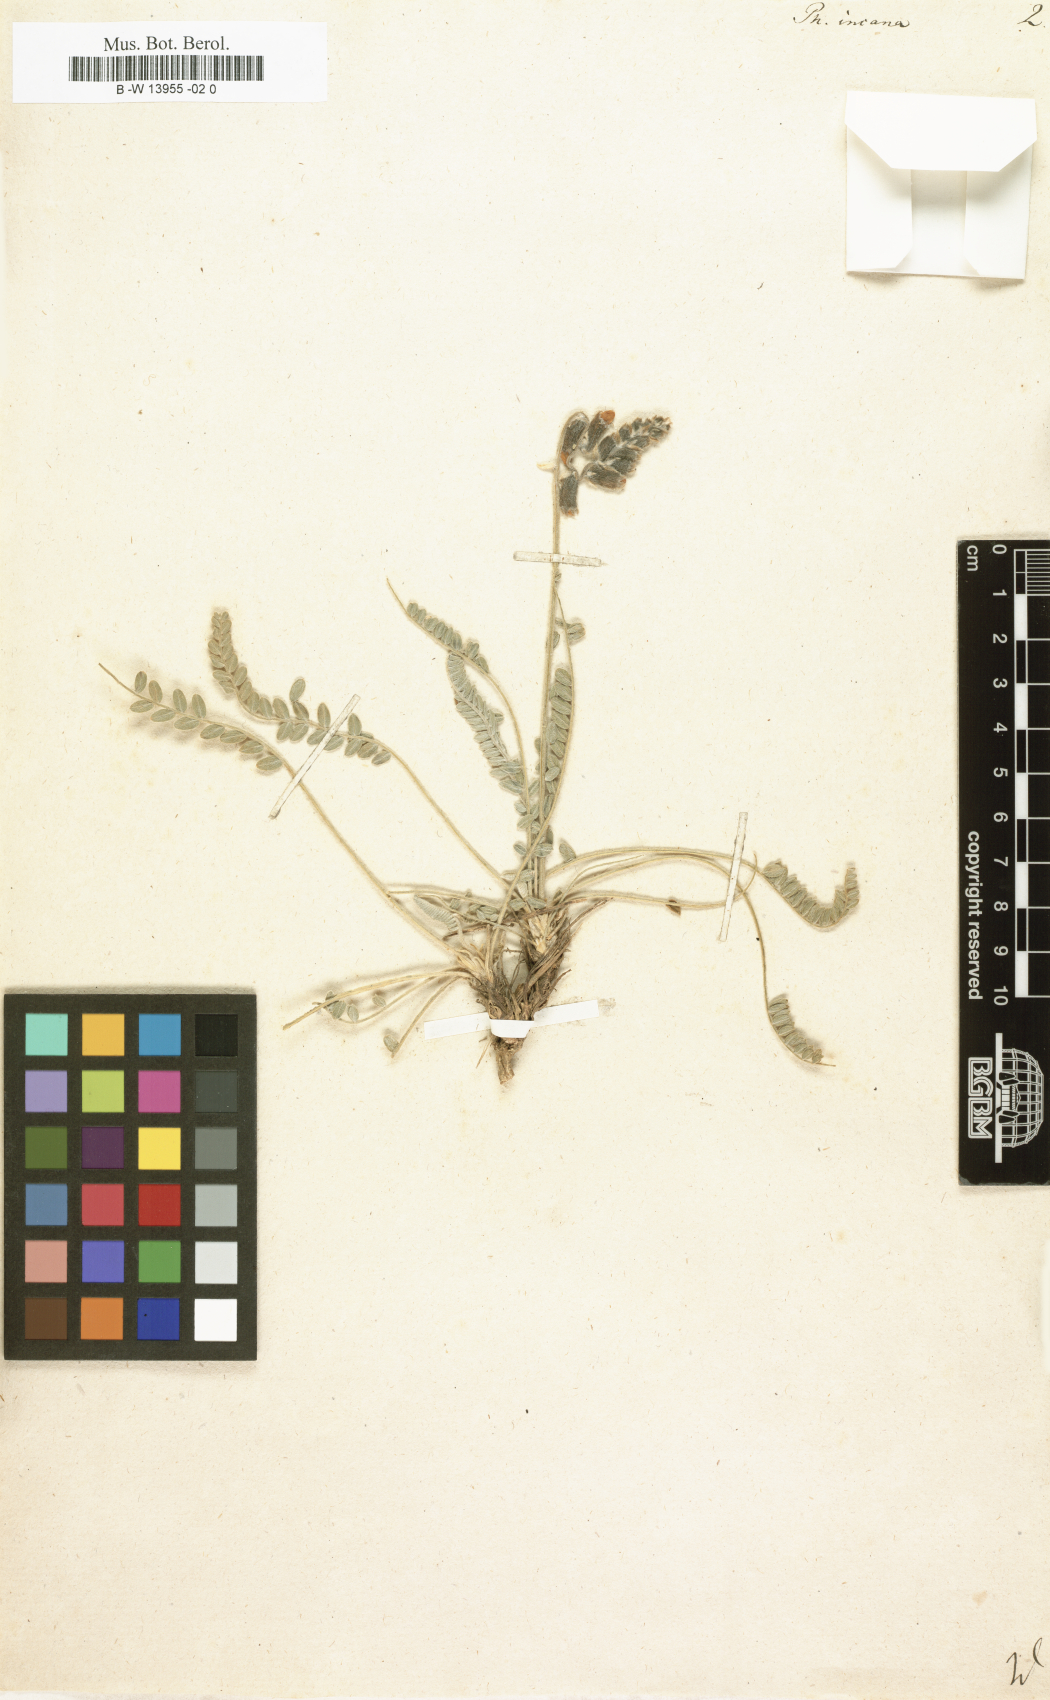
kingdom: Plantae
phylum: Tracheophyta
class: Magnoliopsida
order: Fabales
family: Fabaceae
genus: Astragalus
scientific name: Astragalus anthylloides
